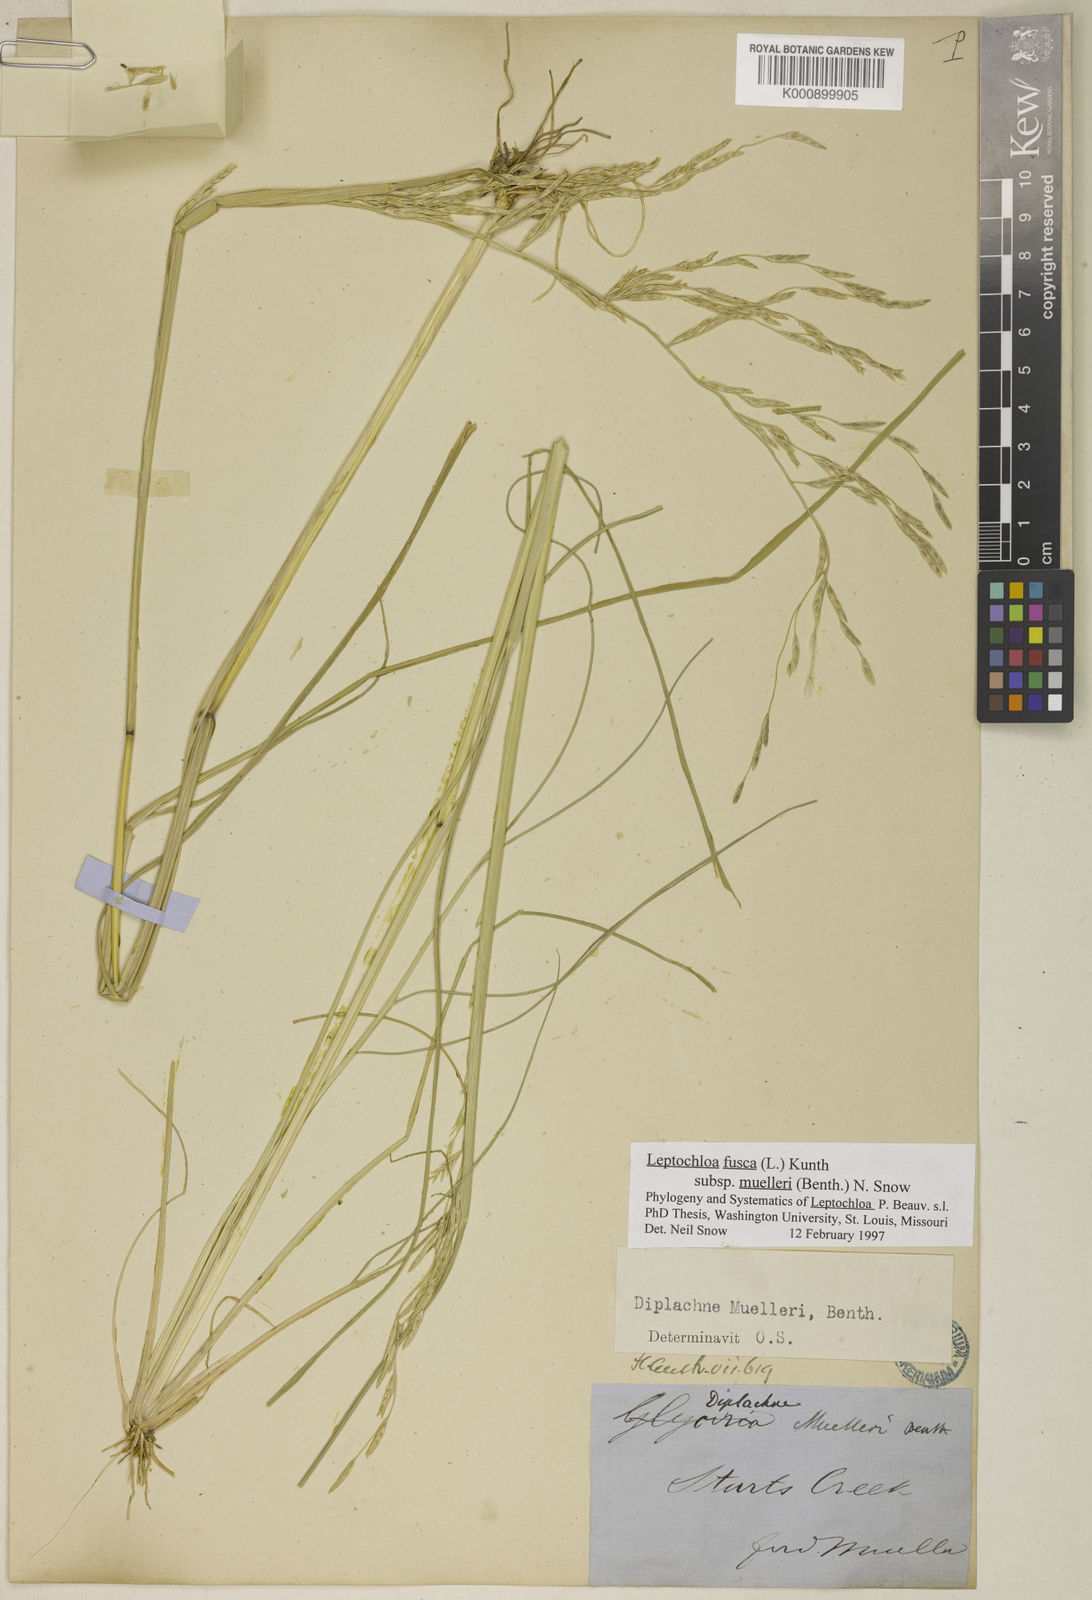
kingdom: Plantae
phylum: Tracheophyta
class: Liliopsida
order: Poales
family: Poaceae
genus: Diplachne
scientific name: Diplachne fusca
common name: Brown beetle grass
